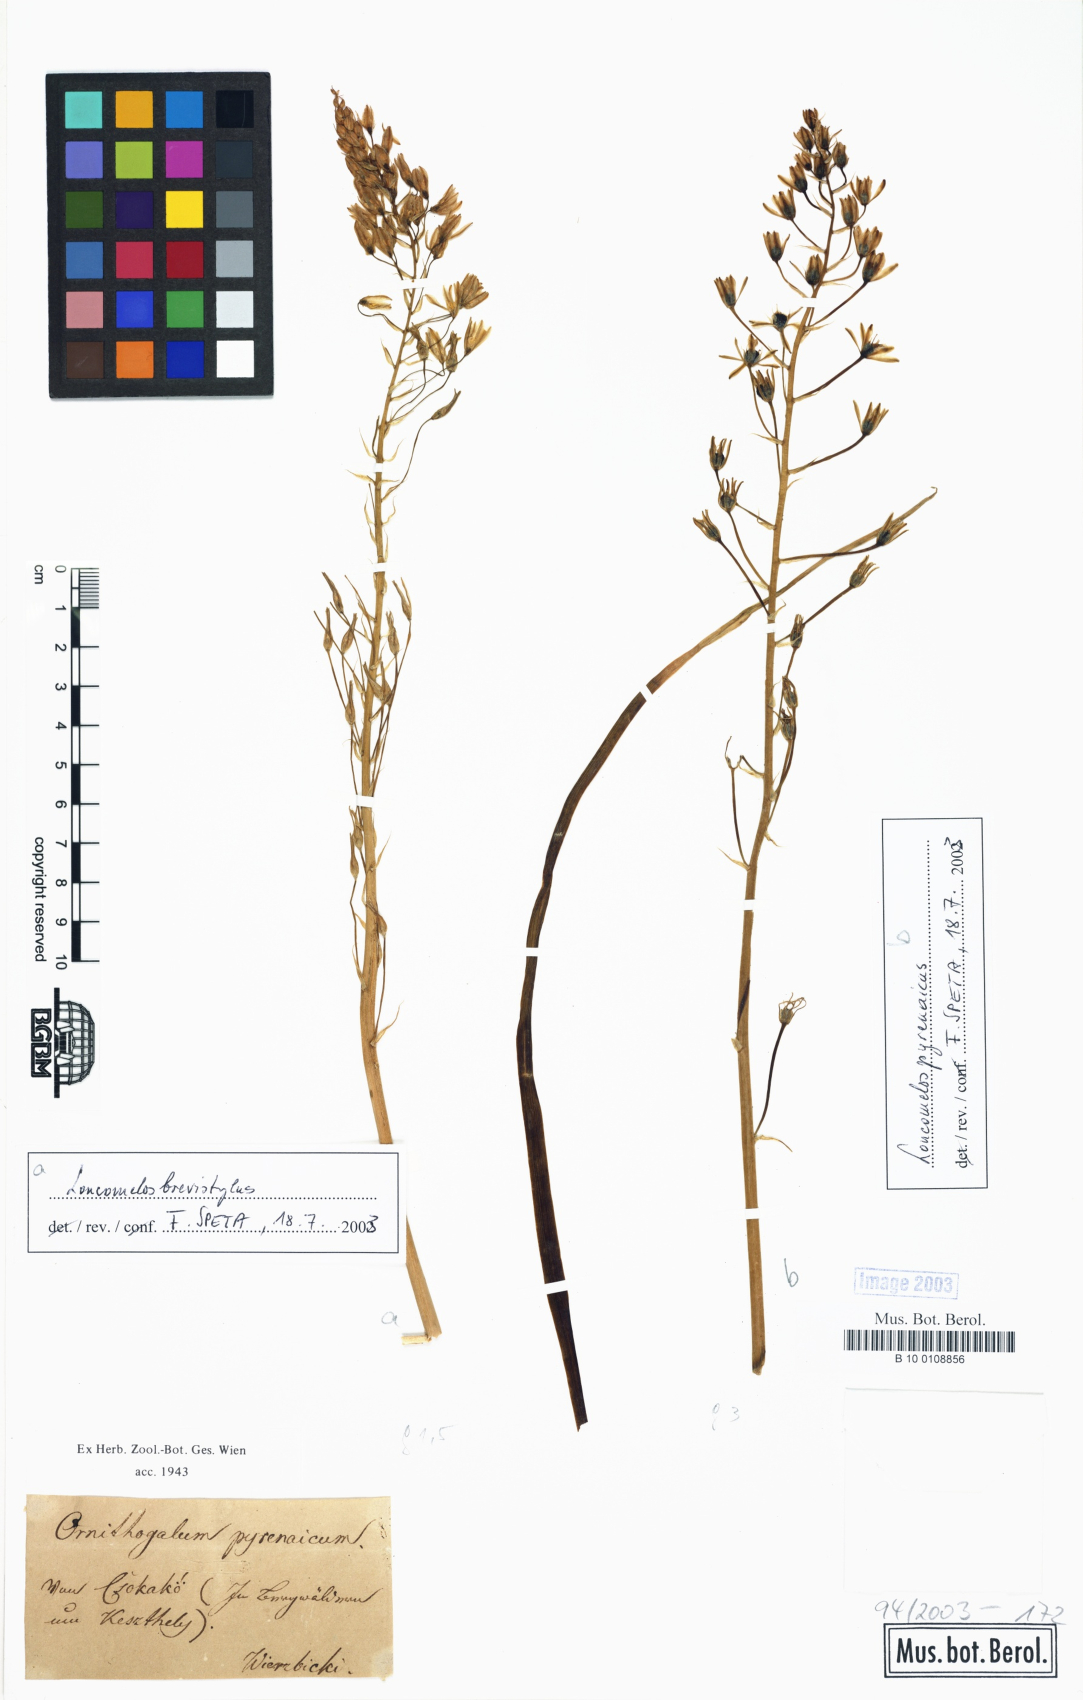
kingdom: Plantae
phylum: Tracheophyta
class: Liliopsida
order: Asparagales
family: Asparagaceae
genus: Ornithogalum
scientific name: Ornithogalum pyrenaicum
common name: Spiked star-of-bethlehem
